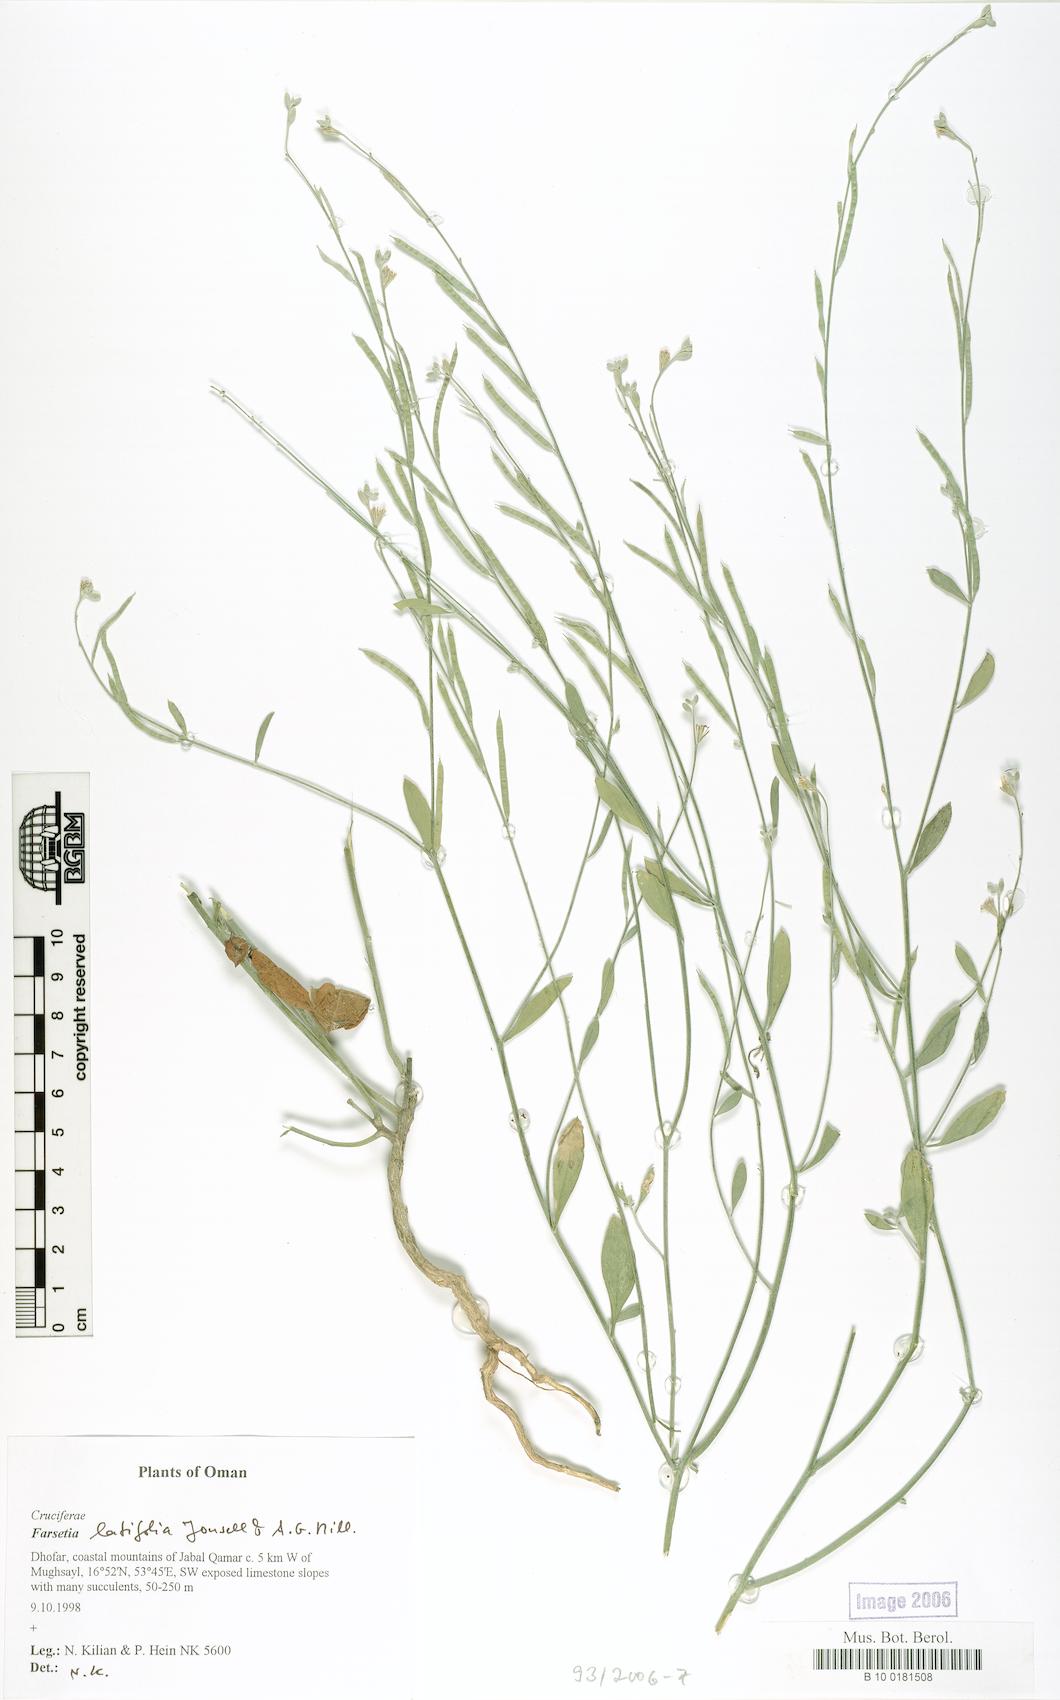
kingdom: Plantae
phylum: Tracheophyta
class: Magnoliopsida
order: Brassicales
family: Brassicaceae
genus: Farsetia
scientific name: Farsetia latifolia
